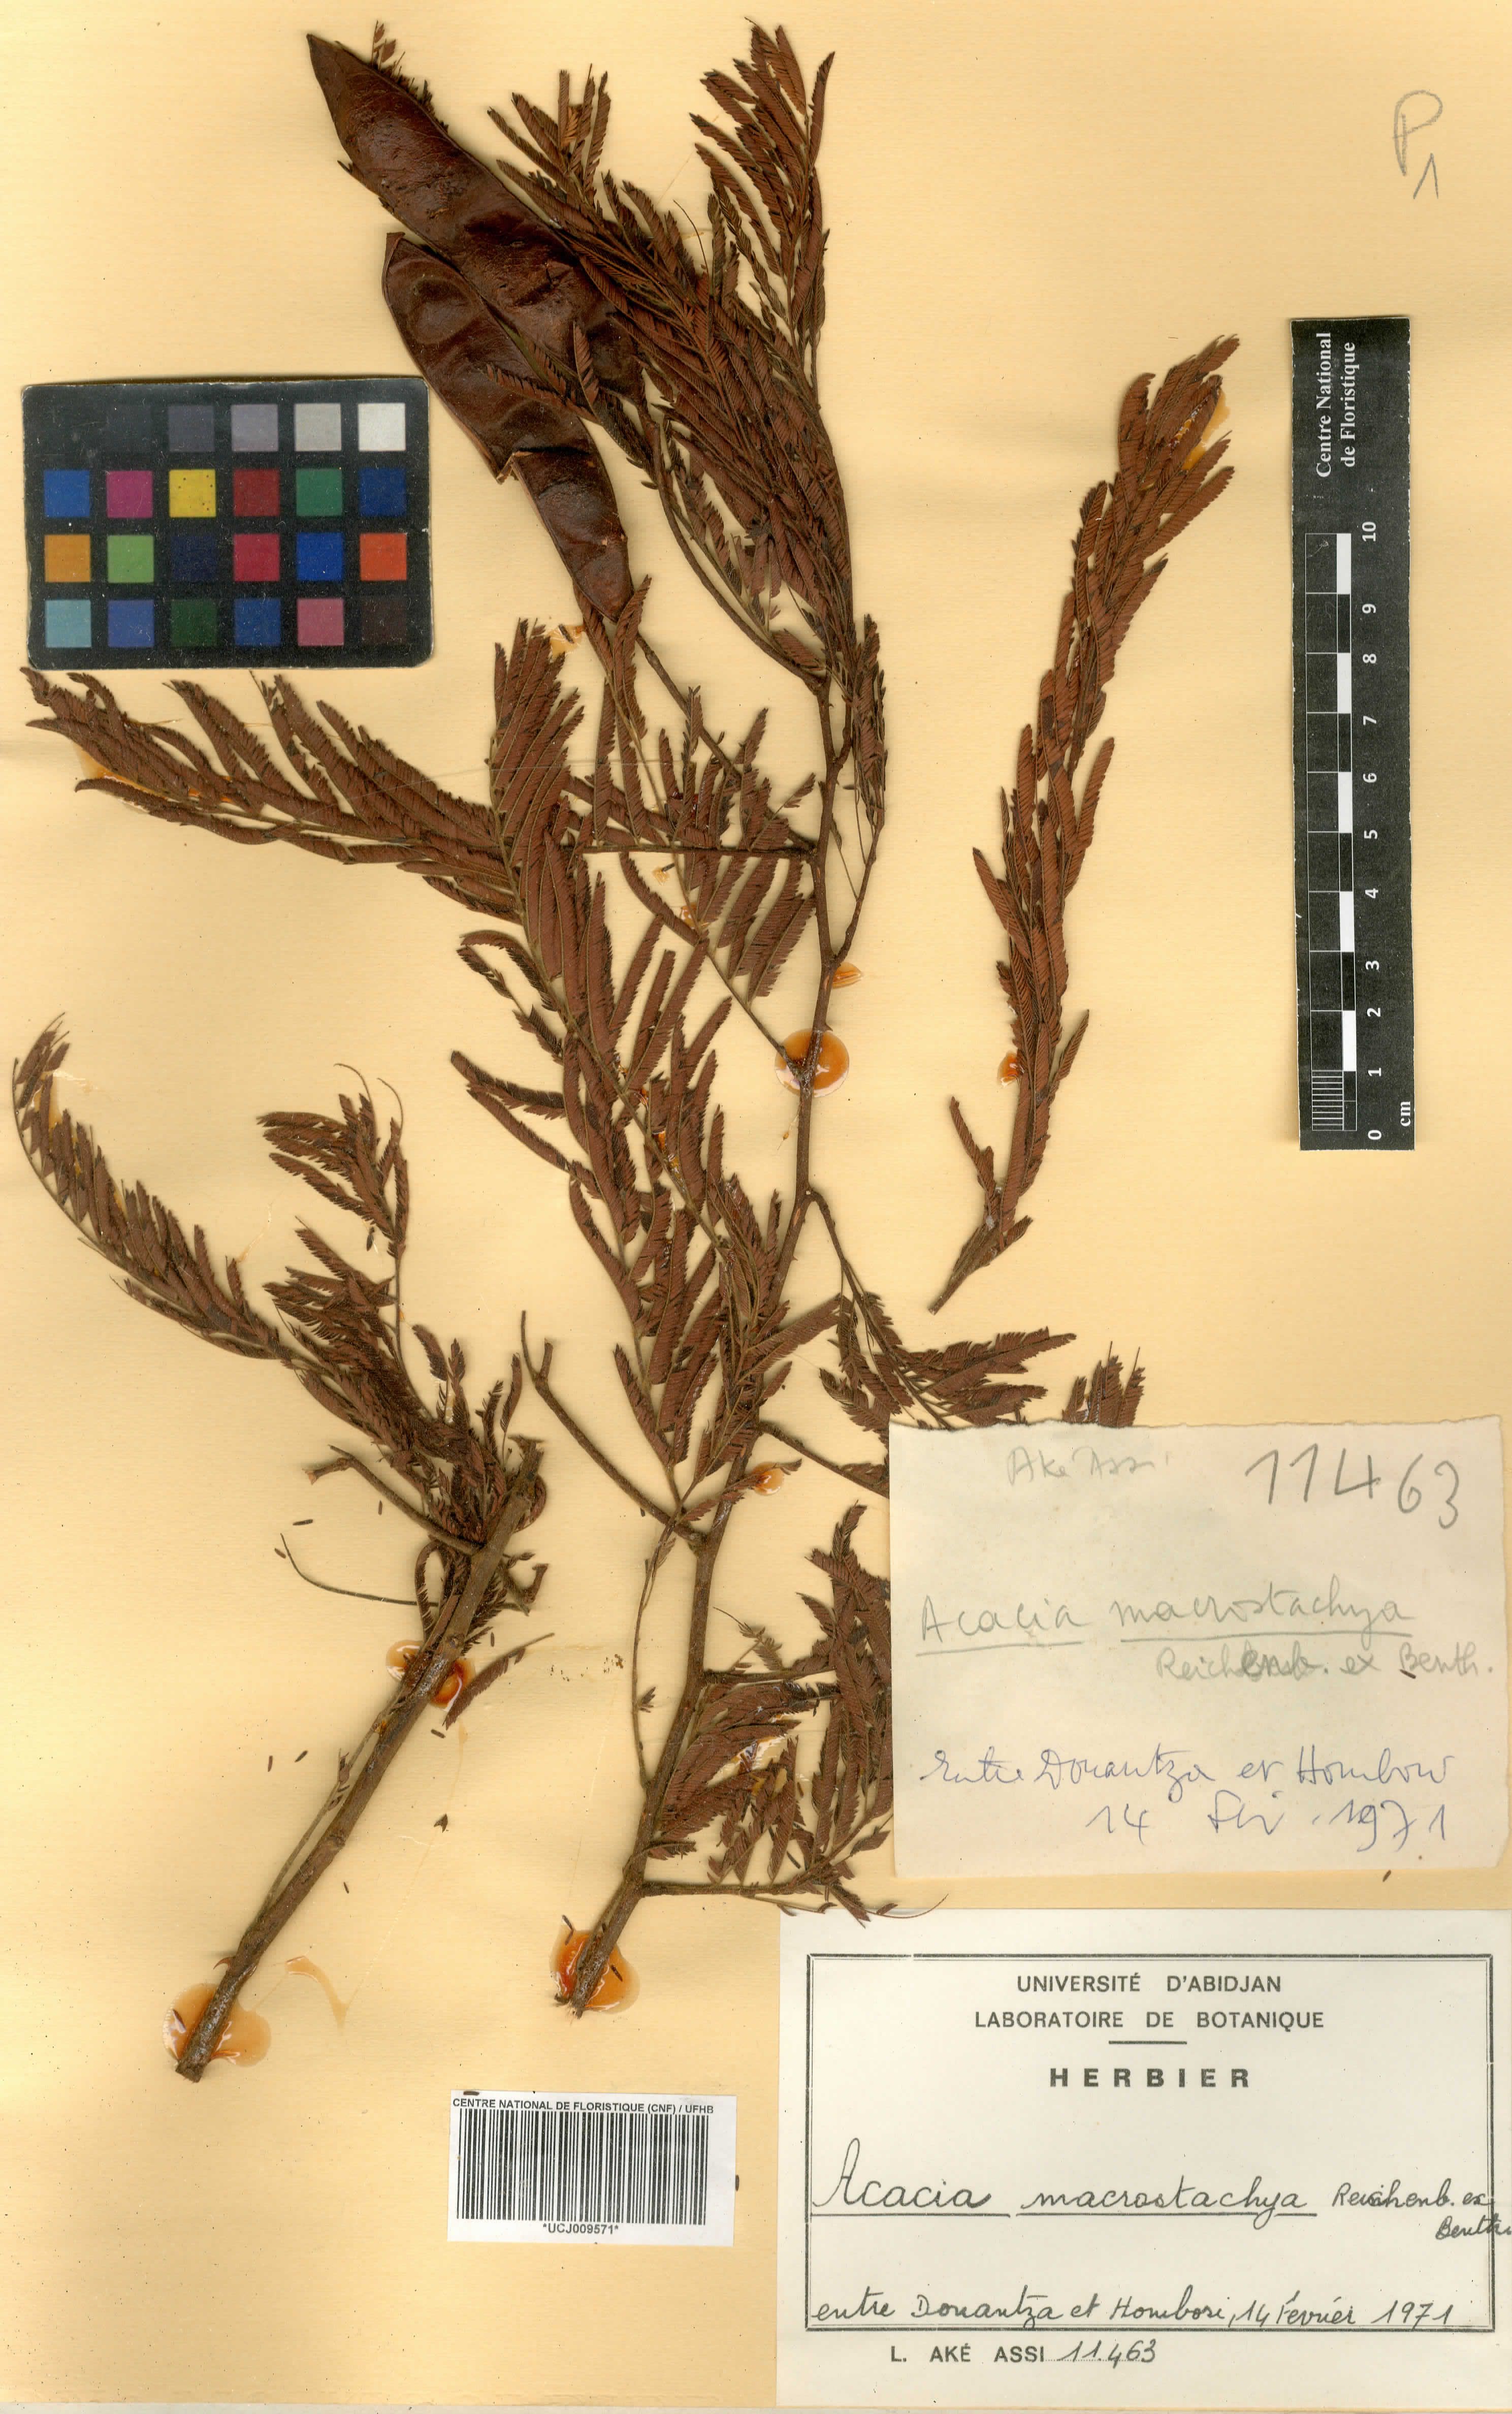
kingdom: Plantae
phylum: Tracheophyta
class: Magnoliopsida
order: Fabales
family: Fabaceae
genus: Senegalia
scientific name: Senegalia macrostachya
